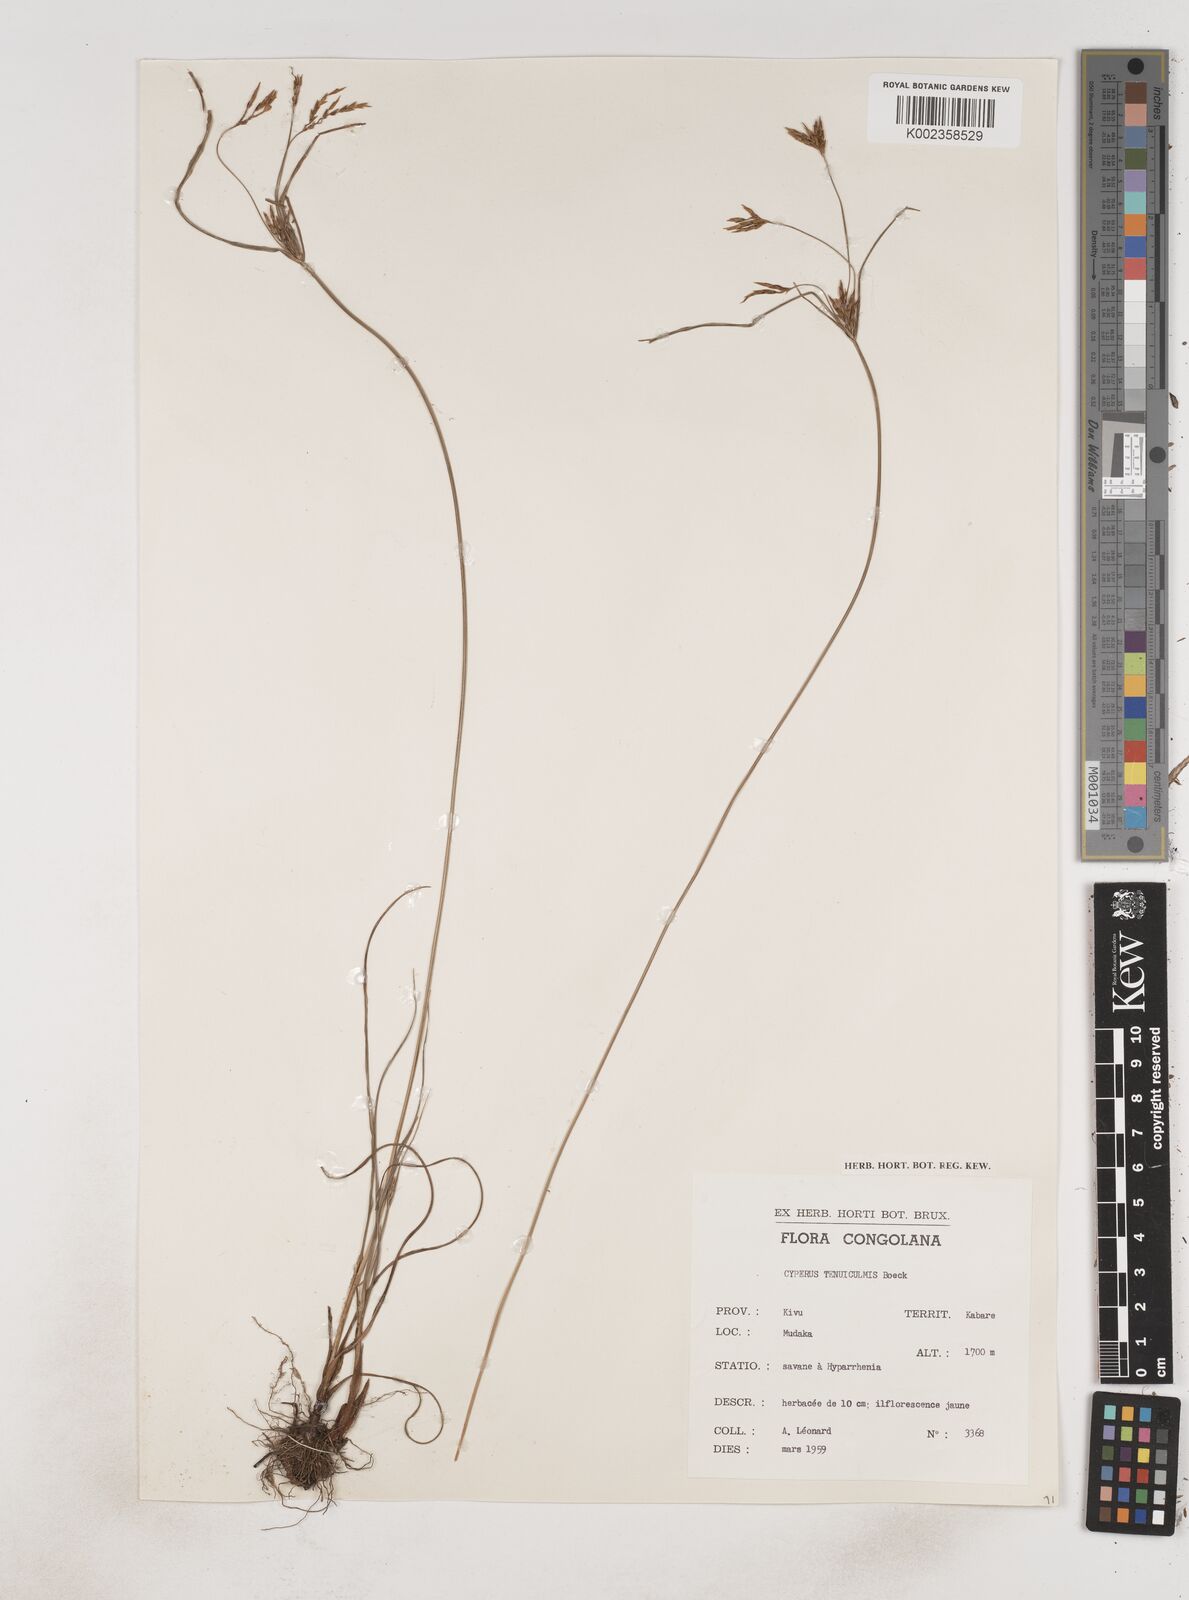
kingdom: Plantae
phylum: Tracheophyta
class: Liliopsida
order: Poales
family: Cyperaceae
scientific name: Cyperaceae
